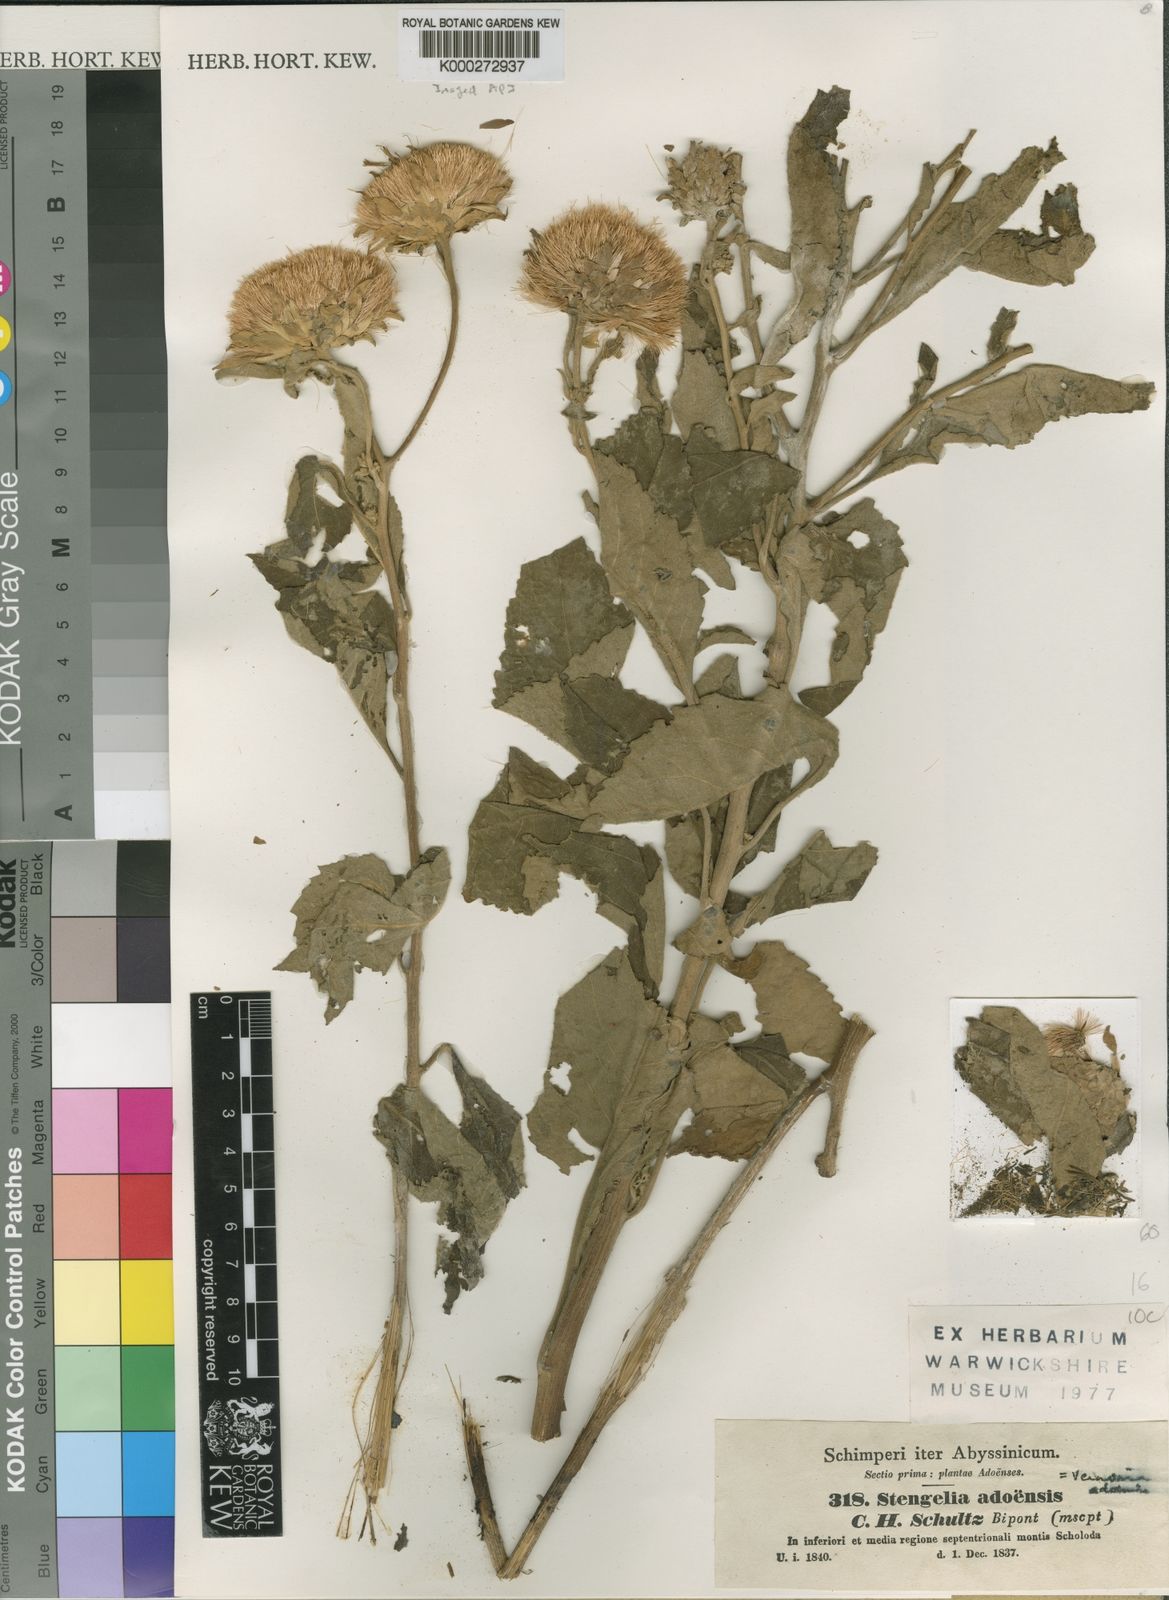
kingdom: Plantae
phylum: Tracheophyta
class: Magnoliopsida
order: Asterales
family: Asteraceae
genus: Baccharoides
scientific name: Baccharoides adoensis
